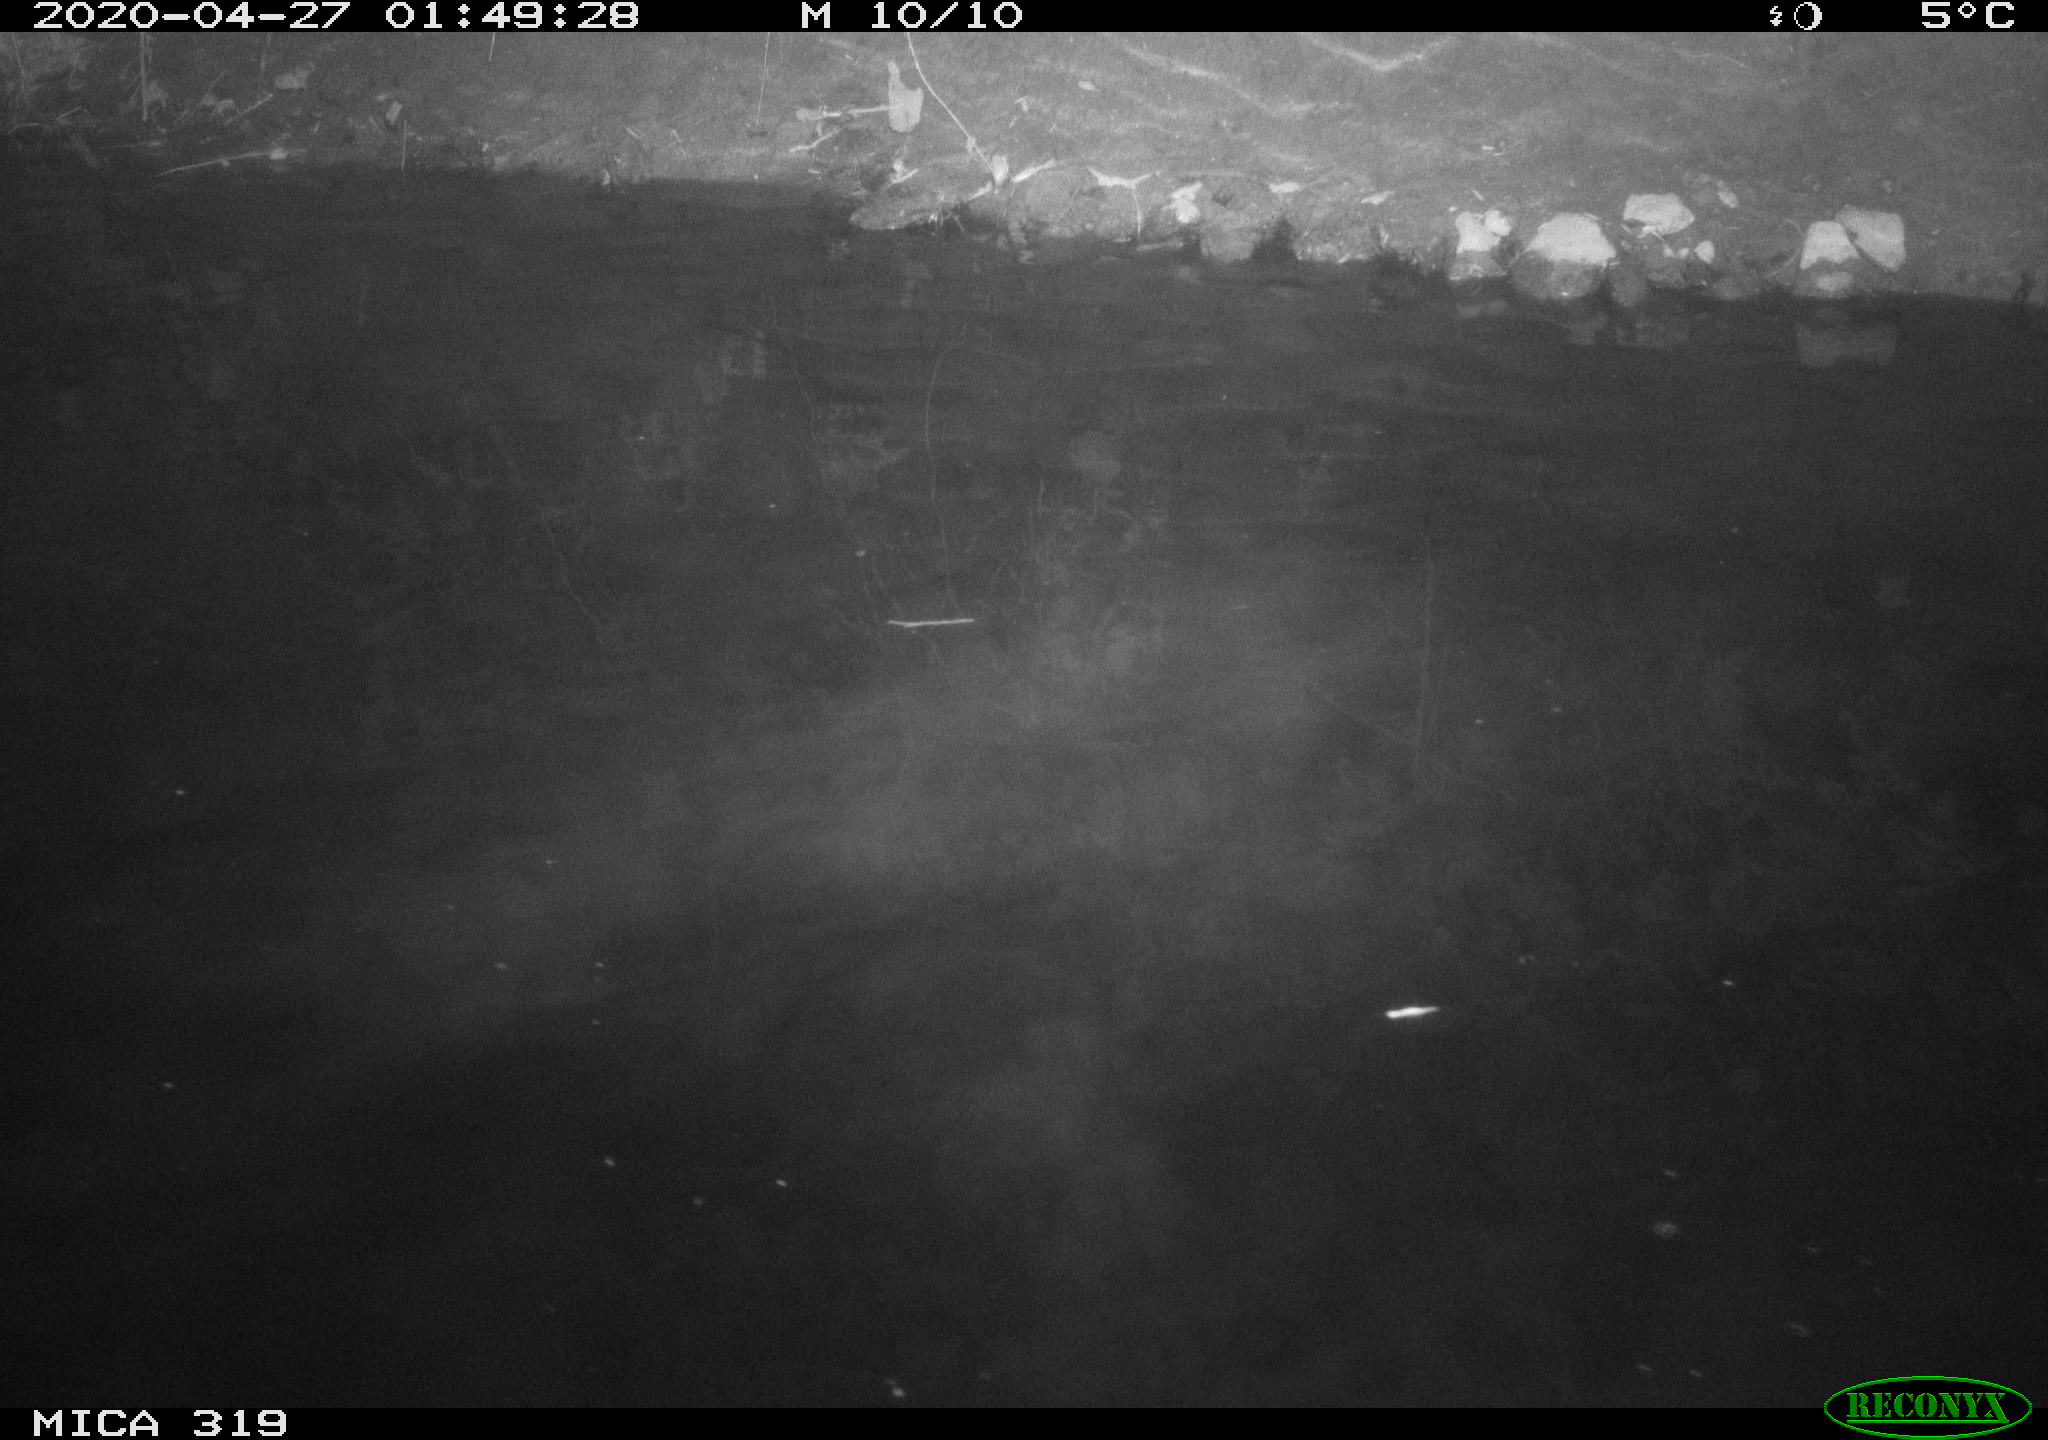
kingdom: Animalia
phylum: Chordata
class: Aves
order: Anseriformes
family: Anatidae
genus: Anas
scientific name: Anas platyrhynchos
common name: Mallard
